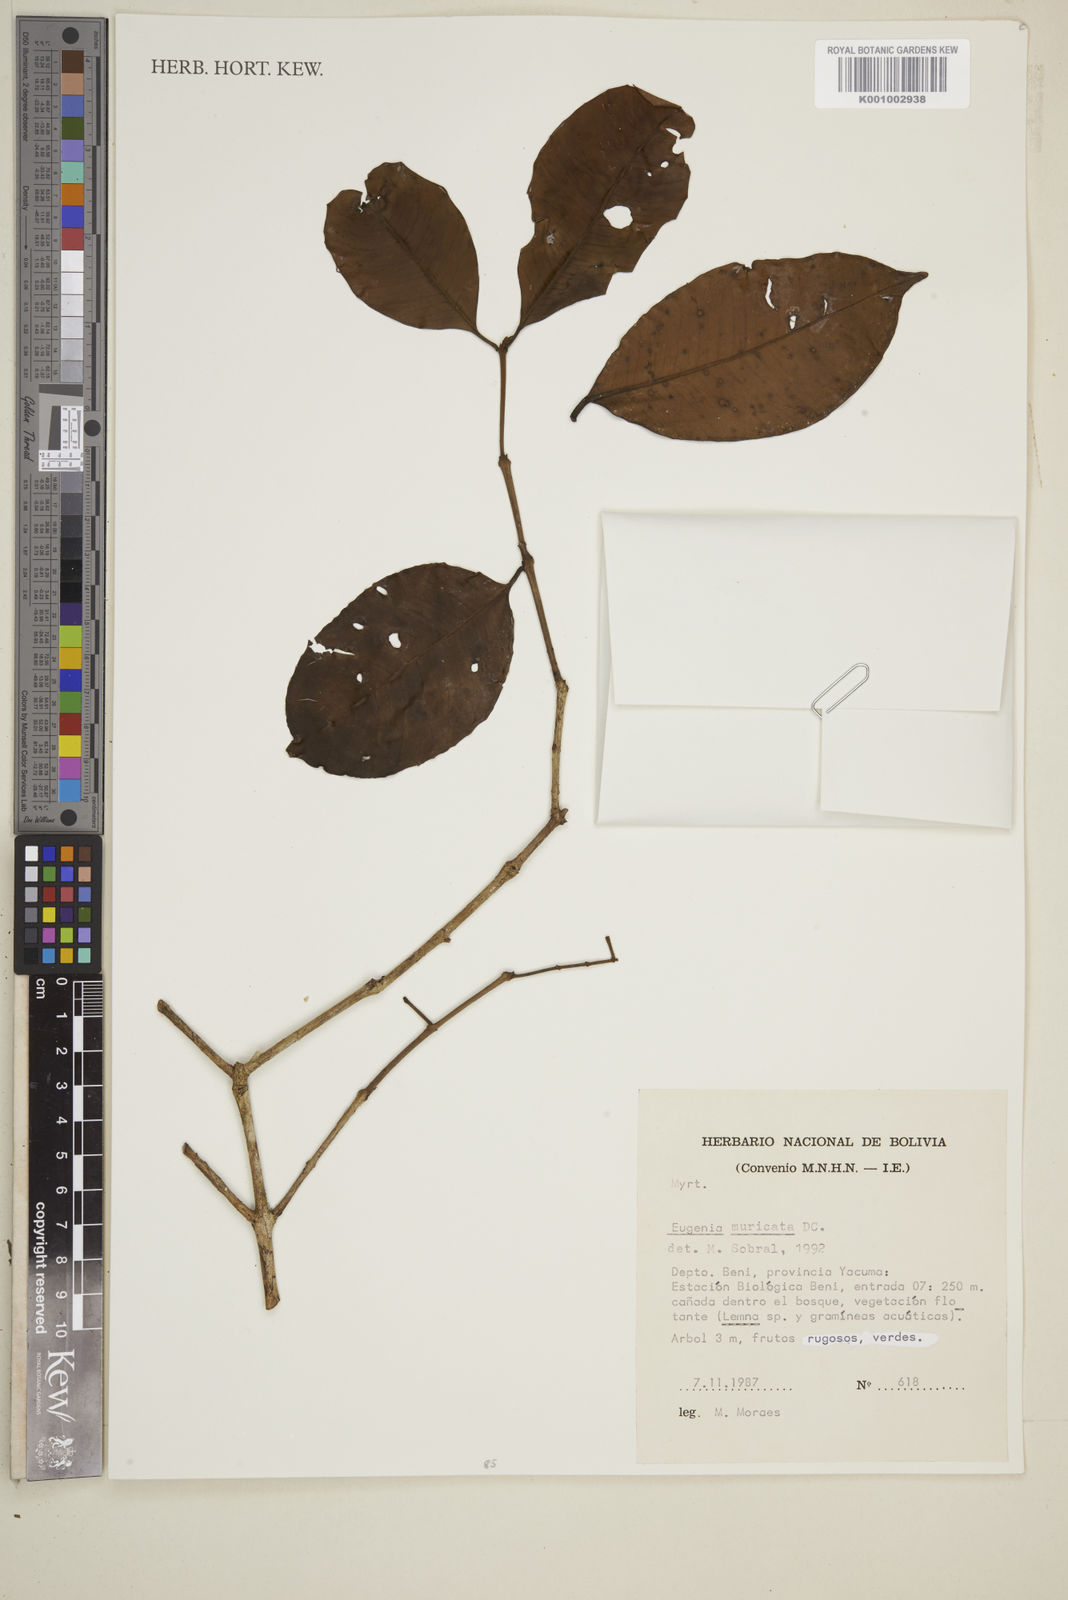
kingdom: Plantae
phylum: Tracheophyta
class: Magnoliopsida
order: Myrtales
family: Myrtaceae
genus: Eugenia
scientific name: Eugenia muricata
